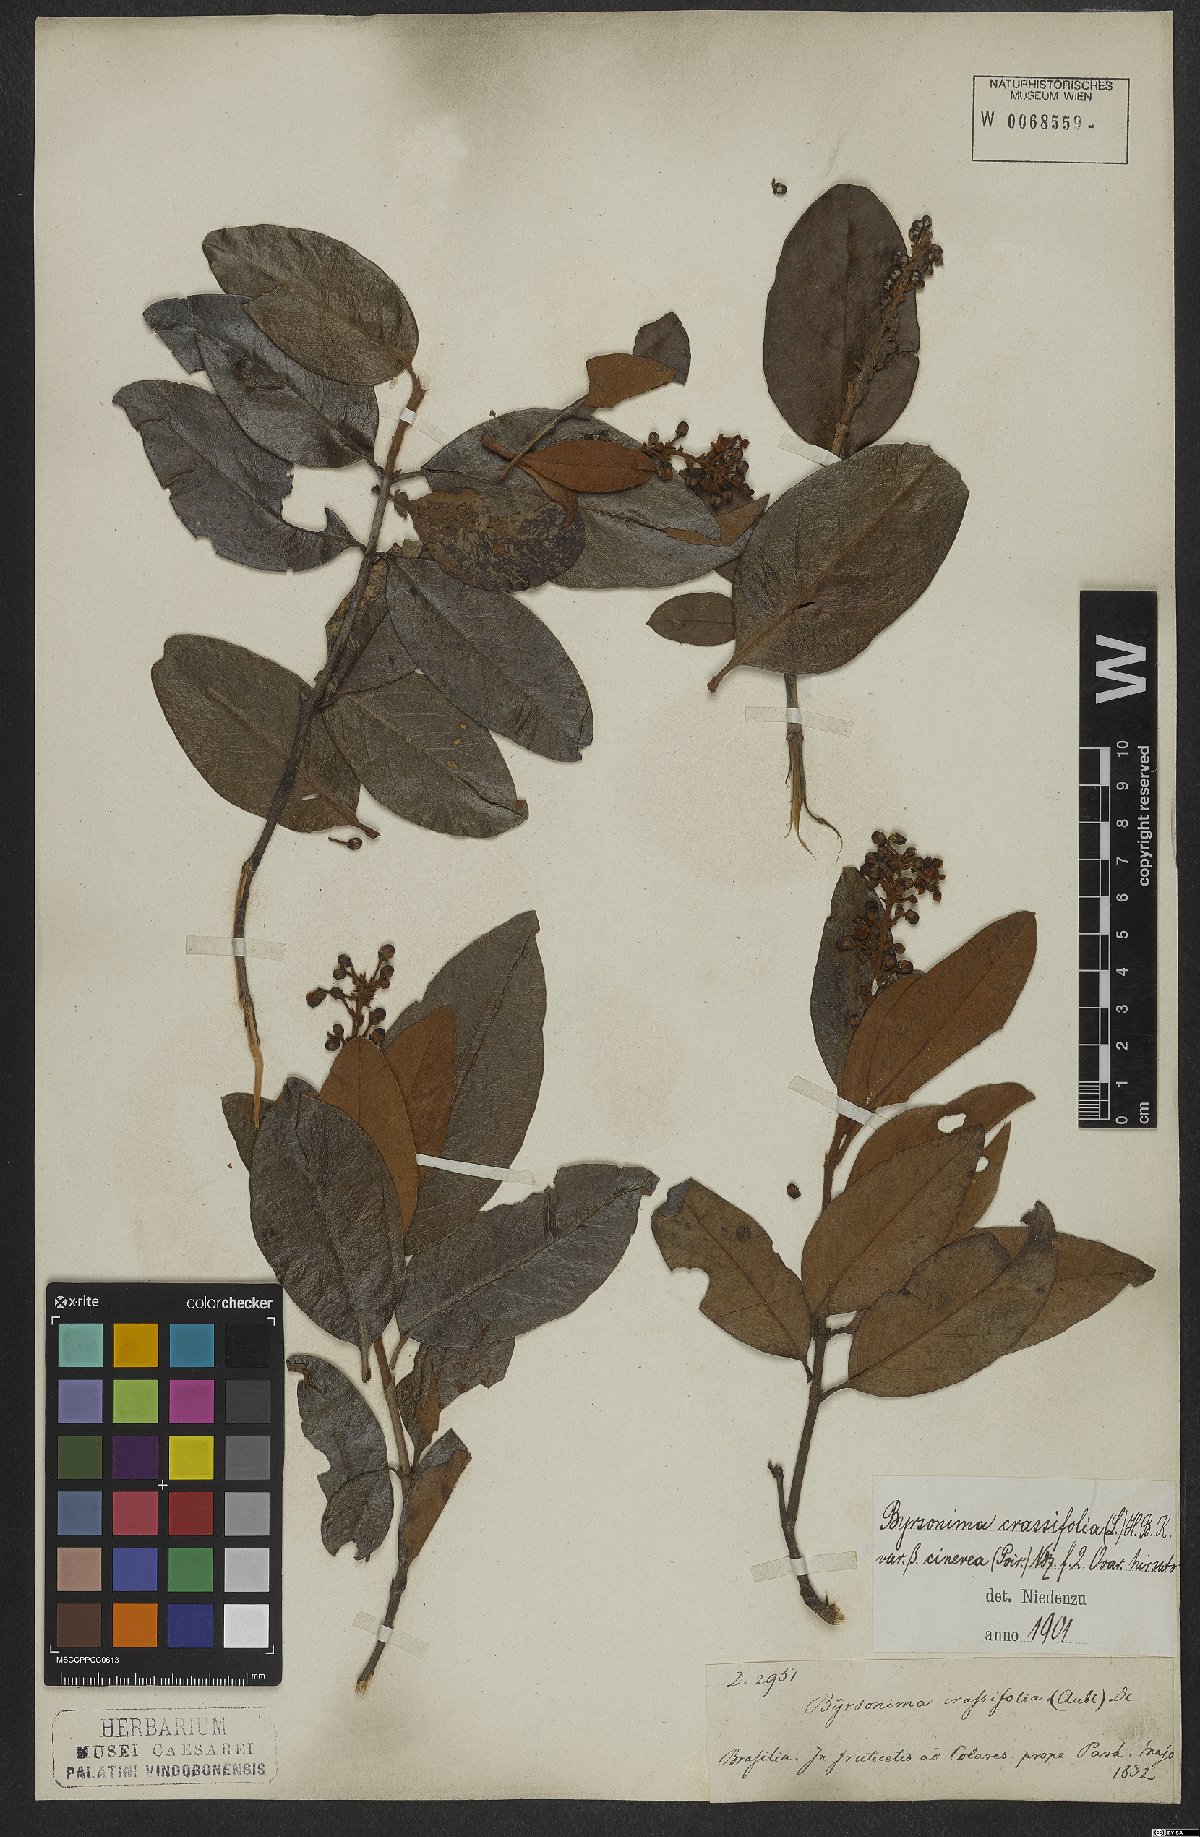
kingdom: Plantae
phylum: Tracheophyta
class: Magnoliopsida
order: Malpighiales
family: Malpighiaceae
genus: Byrsonima
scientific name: Byrsonima crassifolia
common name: Golden spoon
